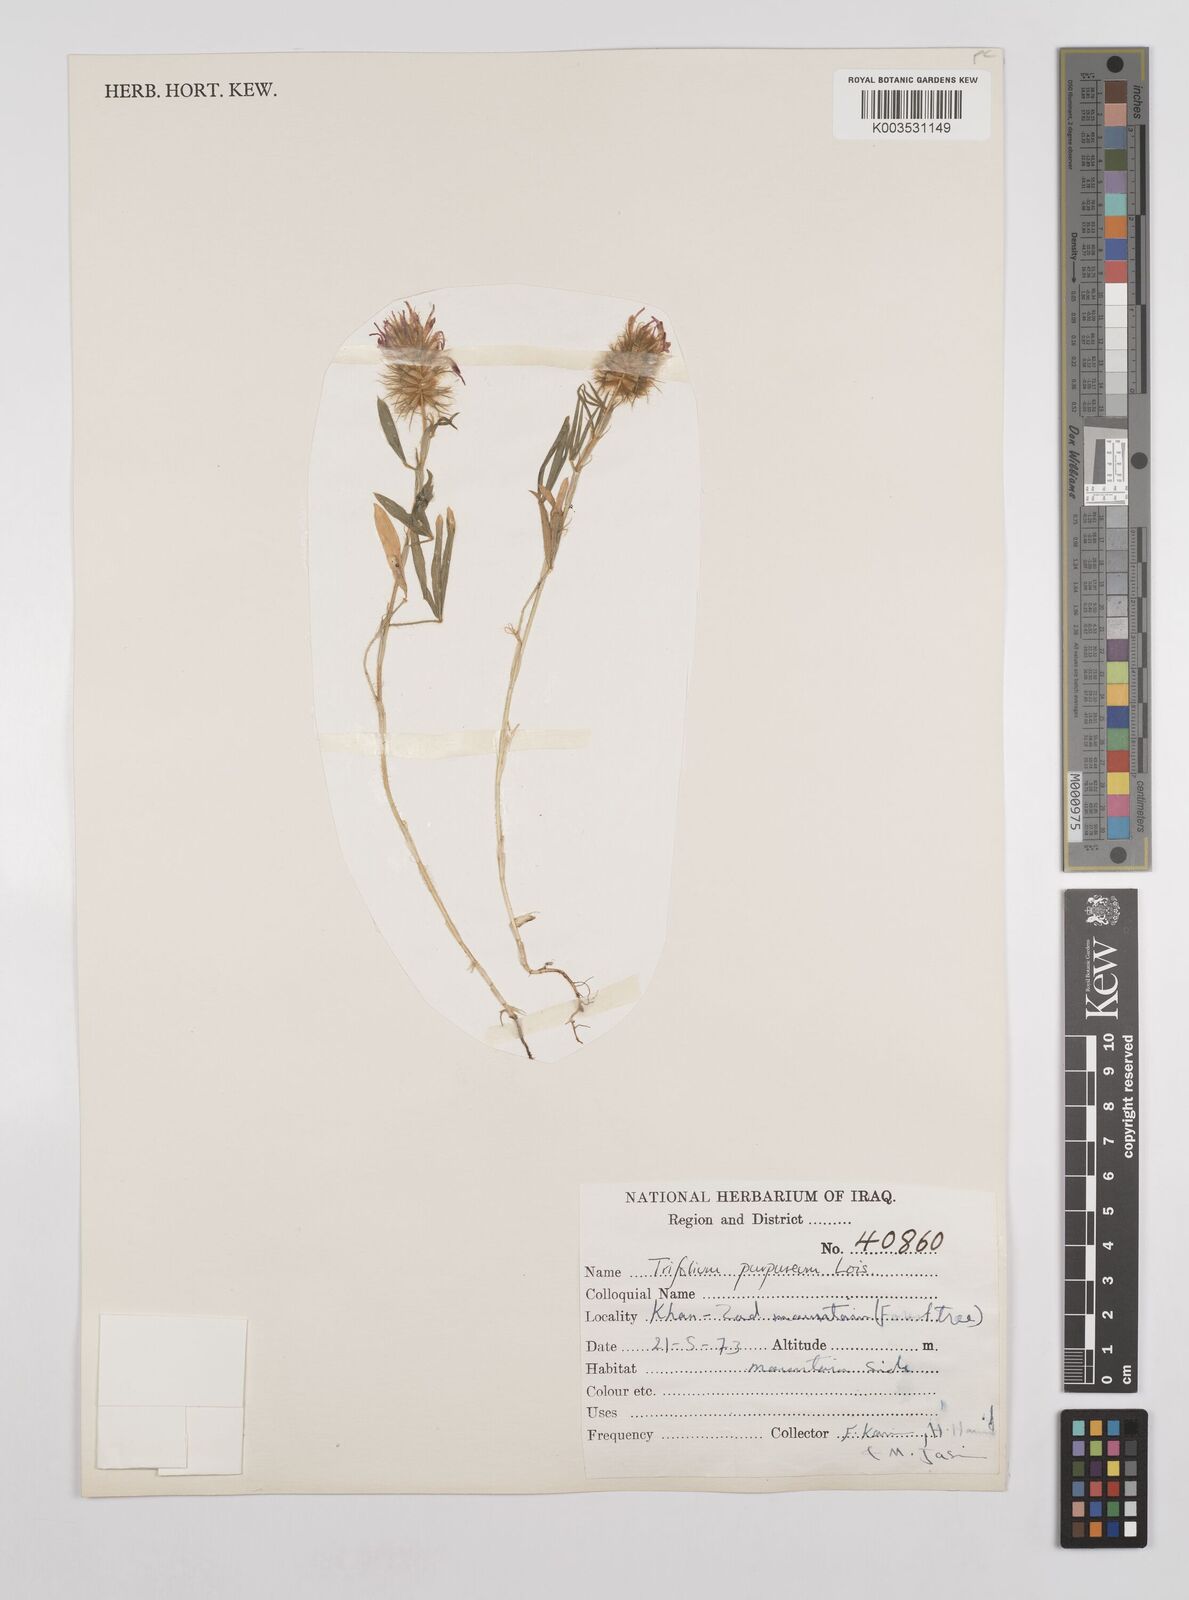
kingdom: Plantae
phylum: Tracheophyta
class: Magnoliopsida
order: Fabales
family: Fabaceae
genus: Trifolium
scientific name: Trifolium purpureum
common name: Purple clover
